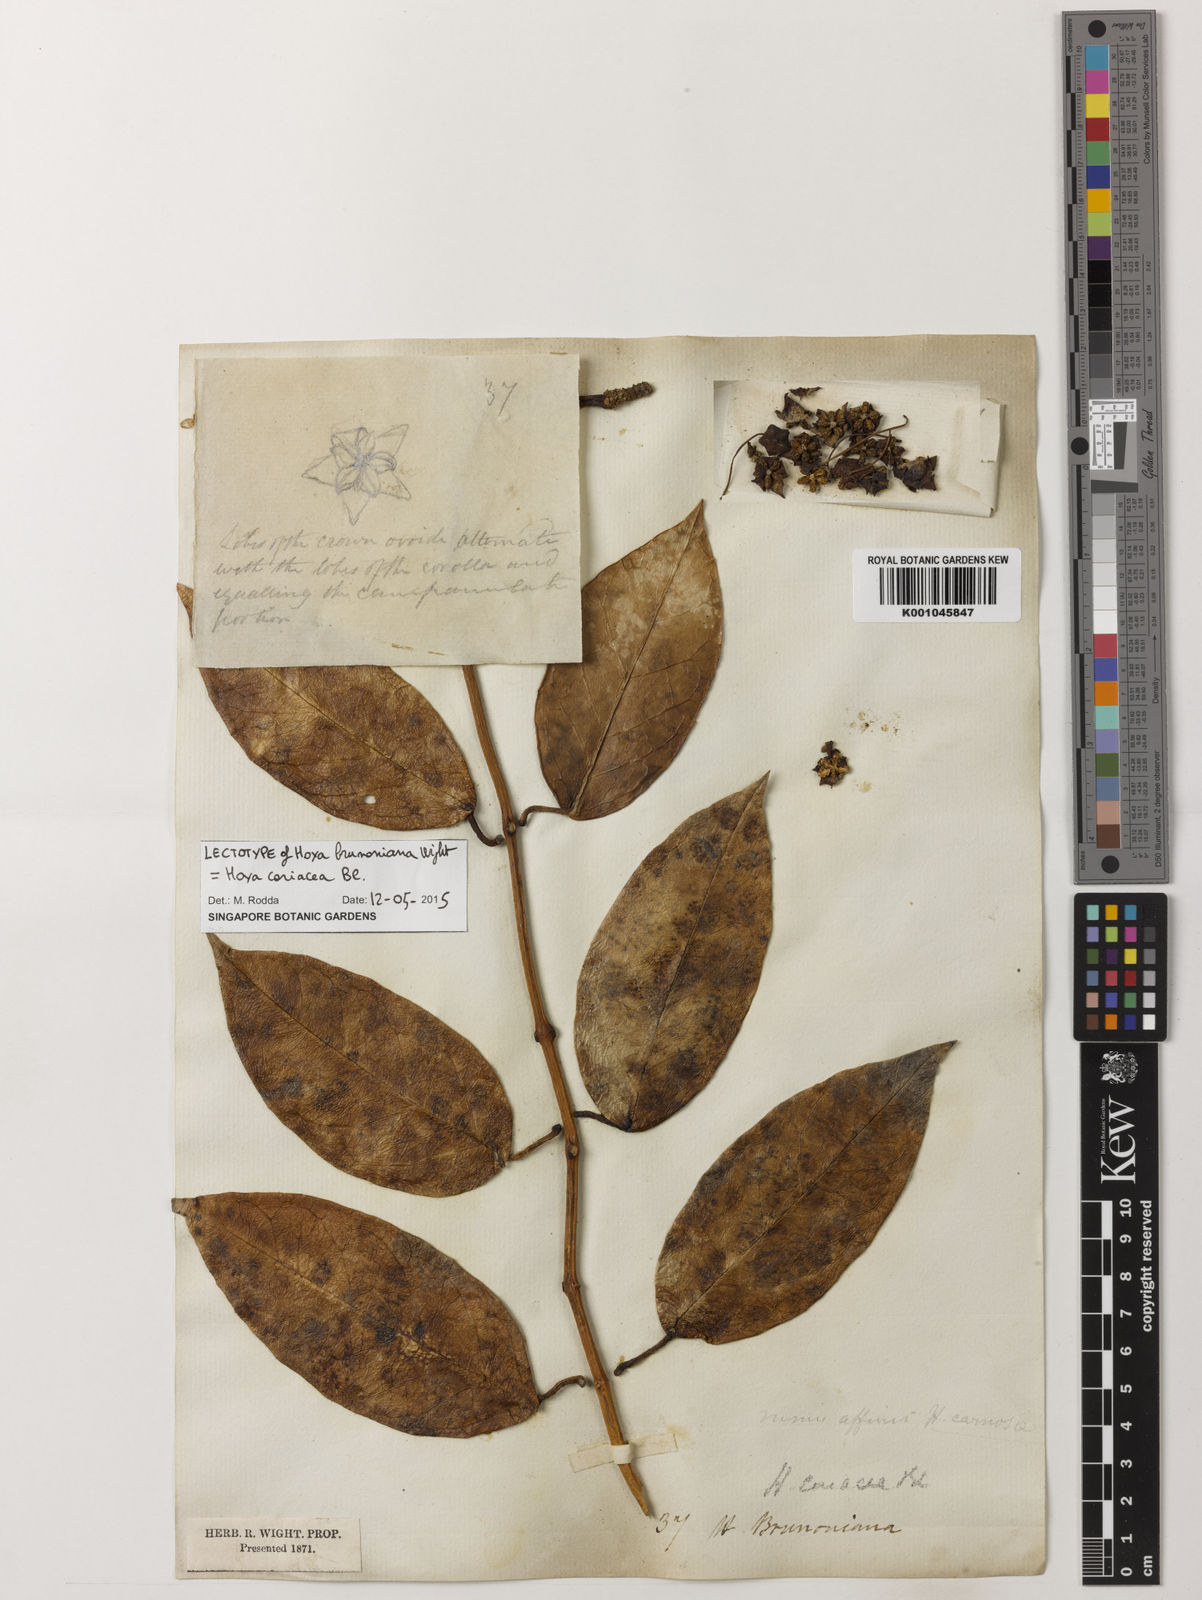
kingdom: Plantae
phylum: Tracheophyta
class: Magnoliopsida
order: Gentianales
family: Apocynaceae
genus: Hoya
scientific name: Hoya coriacea
